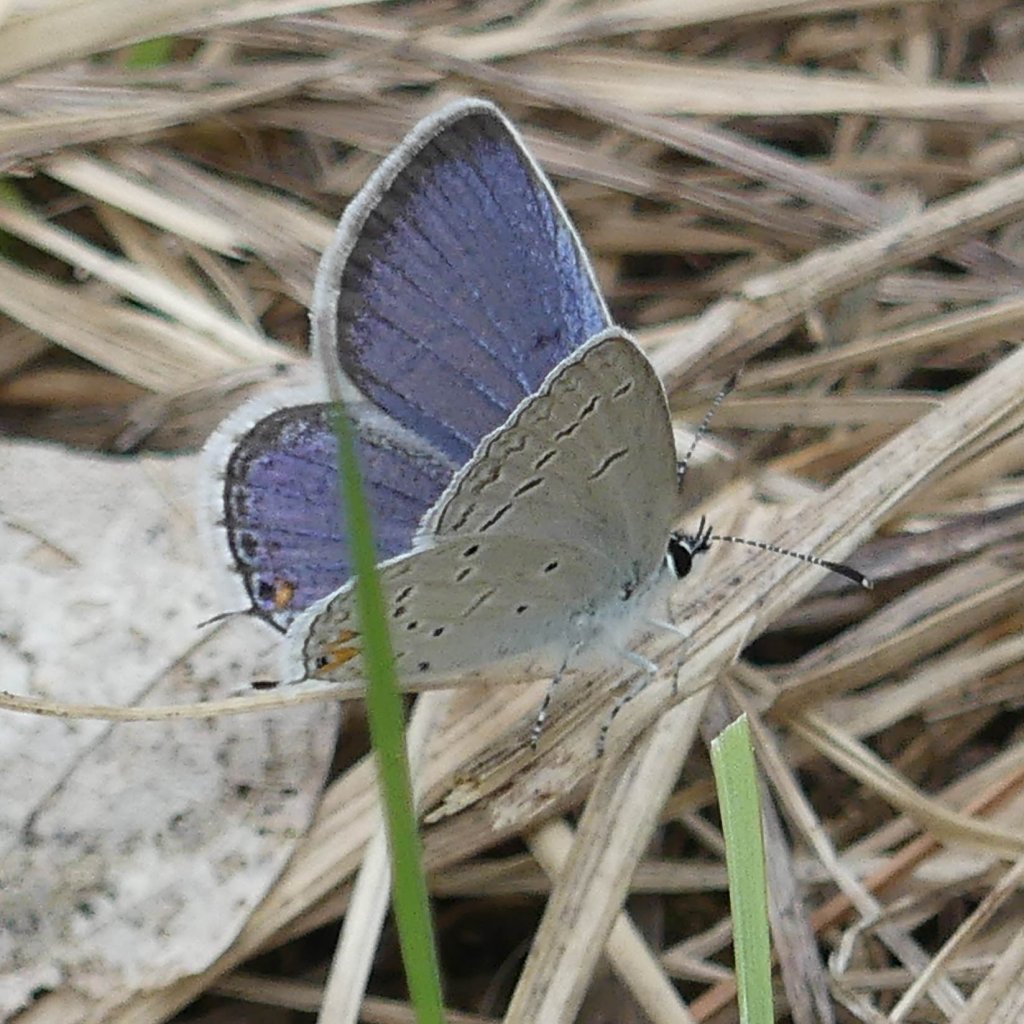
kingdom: Animalia
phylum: Arthropoda
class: Insecta
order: Lepidoptera
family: Lycaenidae
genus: Elkalyce
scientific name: Elkalyce comyntas
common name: Eastern Tailed-Blue
